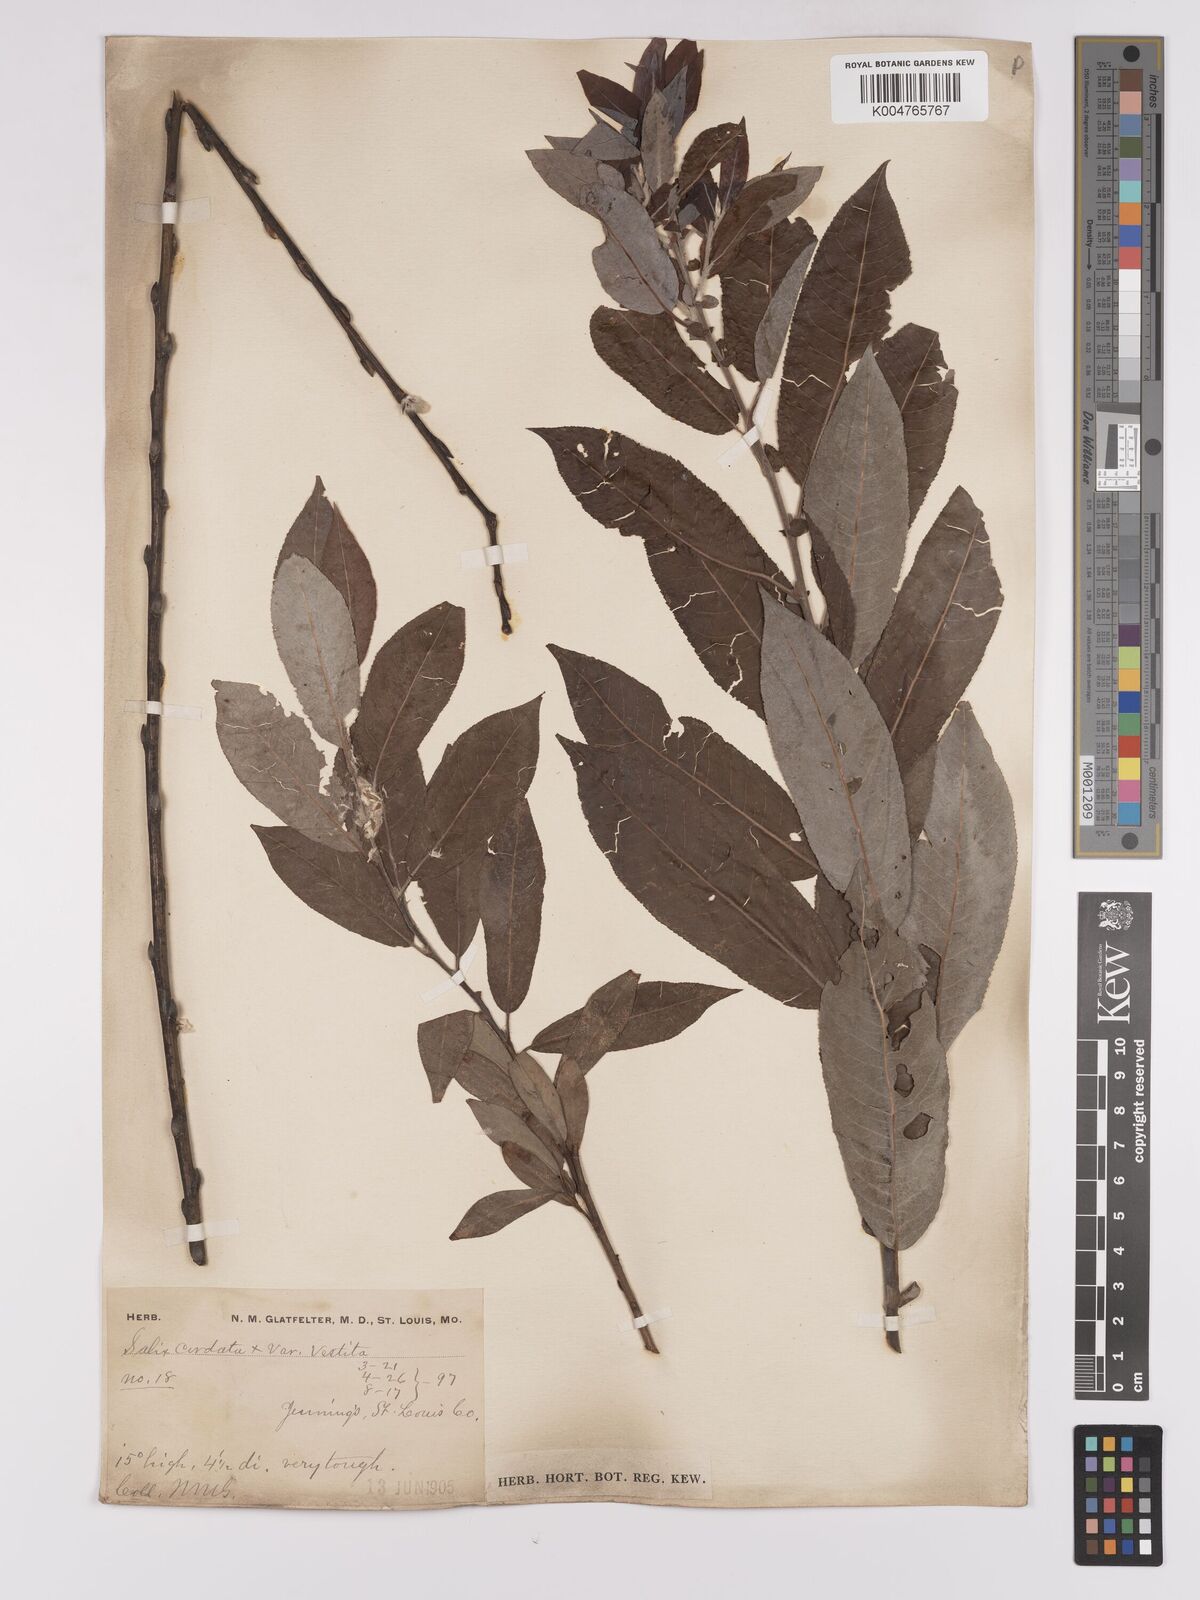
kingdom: Plantae
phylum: Tracheophyta
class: Magnoliopsida
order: Malpighiales
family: Salicaceae
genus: Salix
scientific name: Salix cordata
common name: Heart-leaf willow
